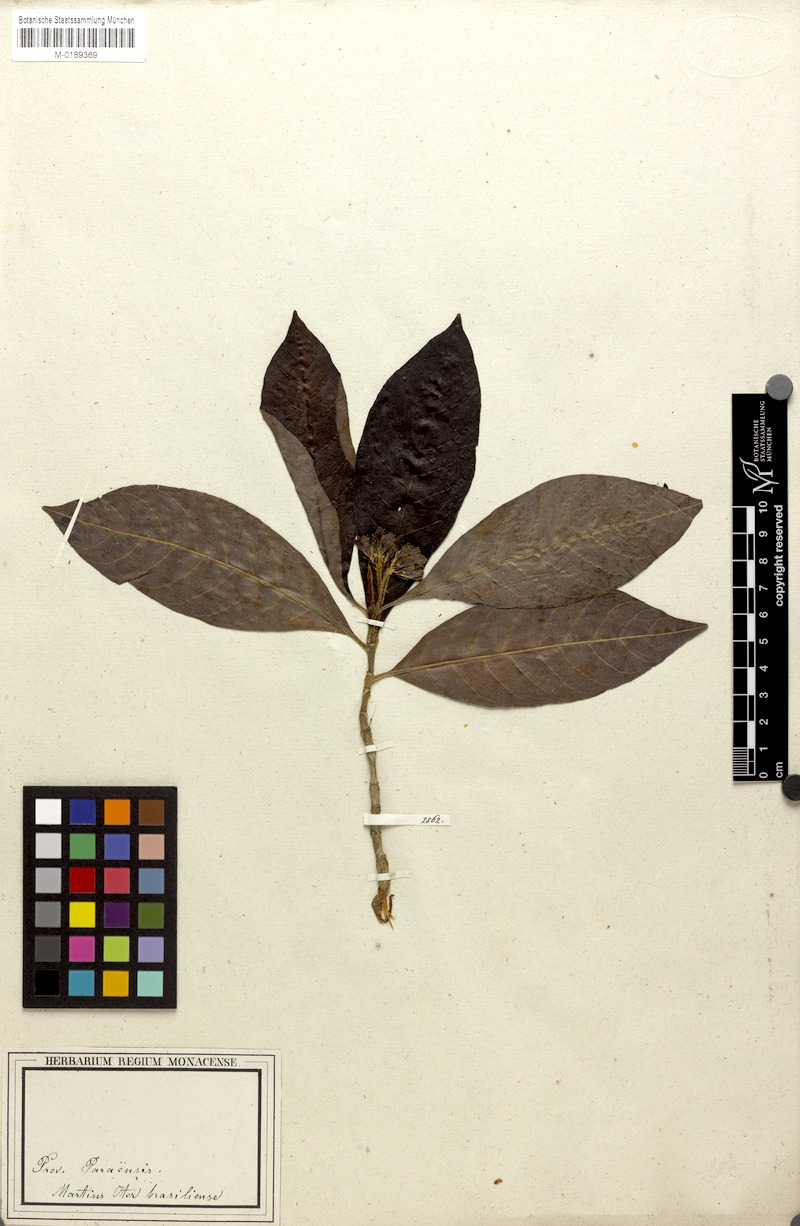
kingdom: Plantae
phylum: Tracheophyta
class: Magnoliopsida
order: Gentianales
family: Rubiaceae
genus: Sommera
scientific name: Sommera sabiceoides
